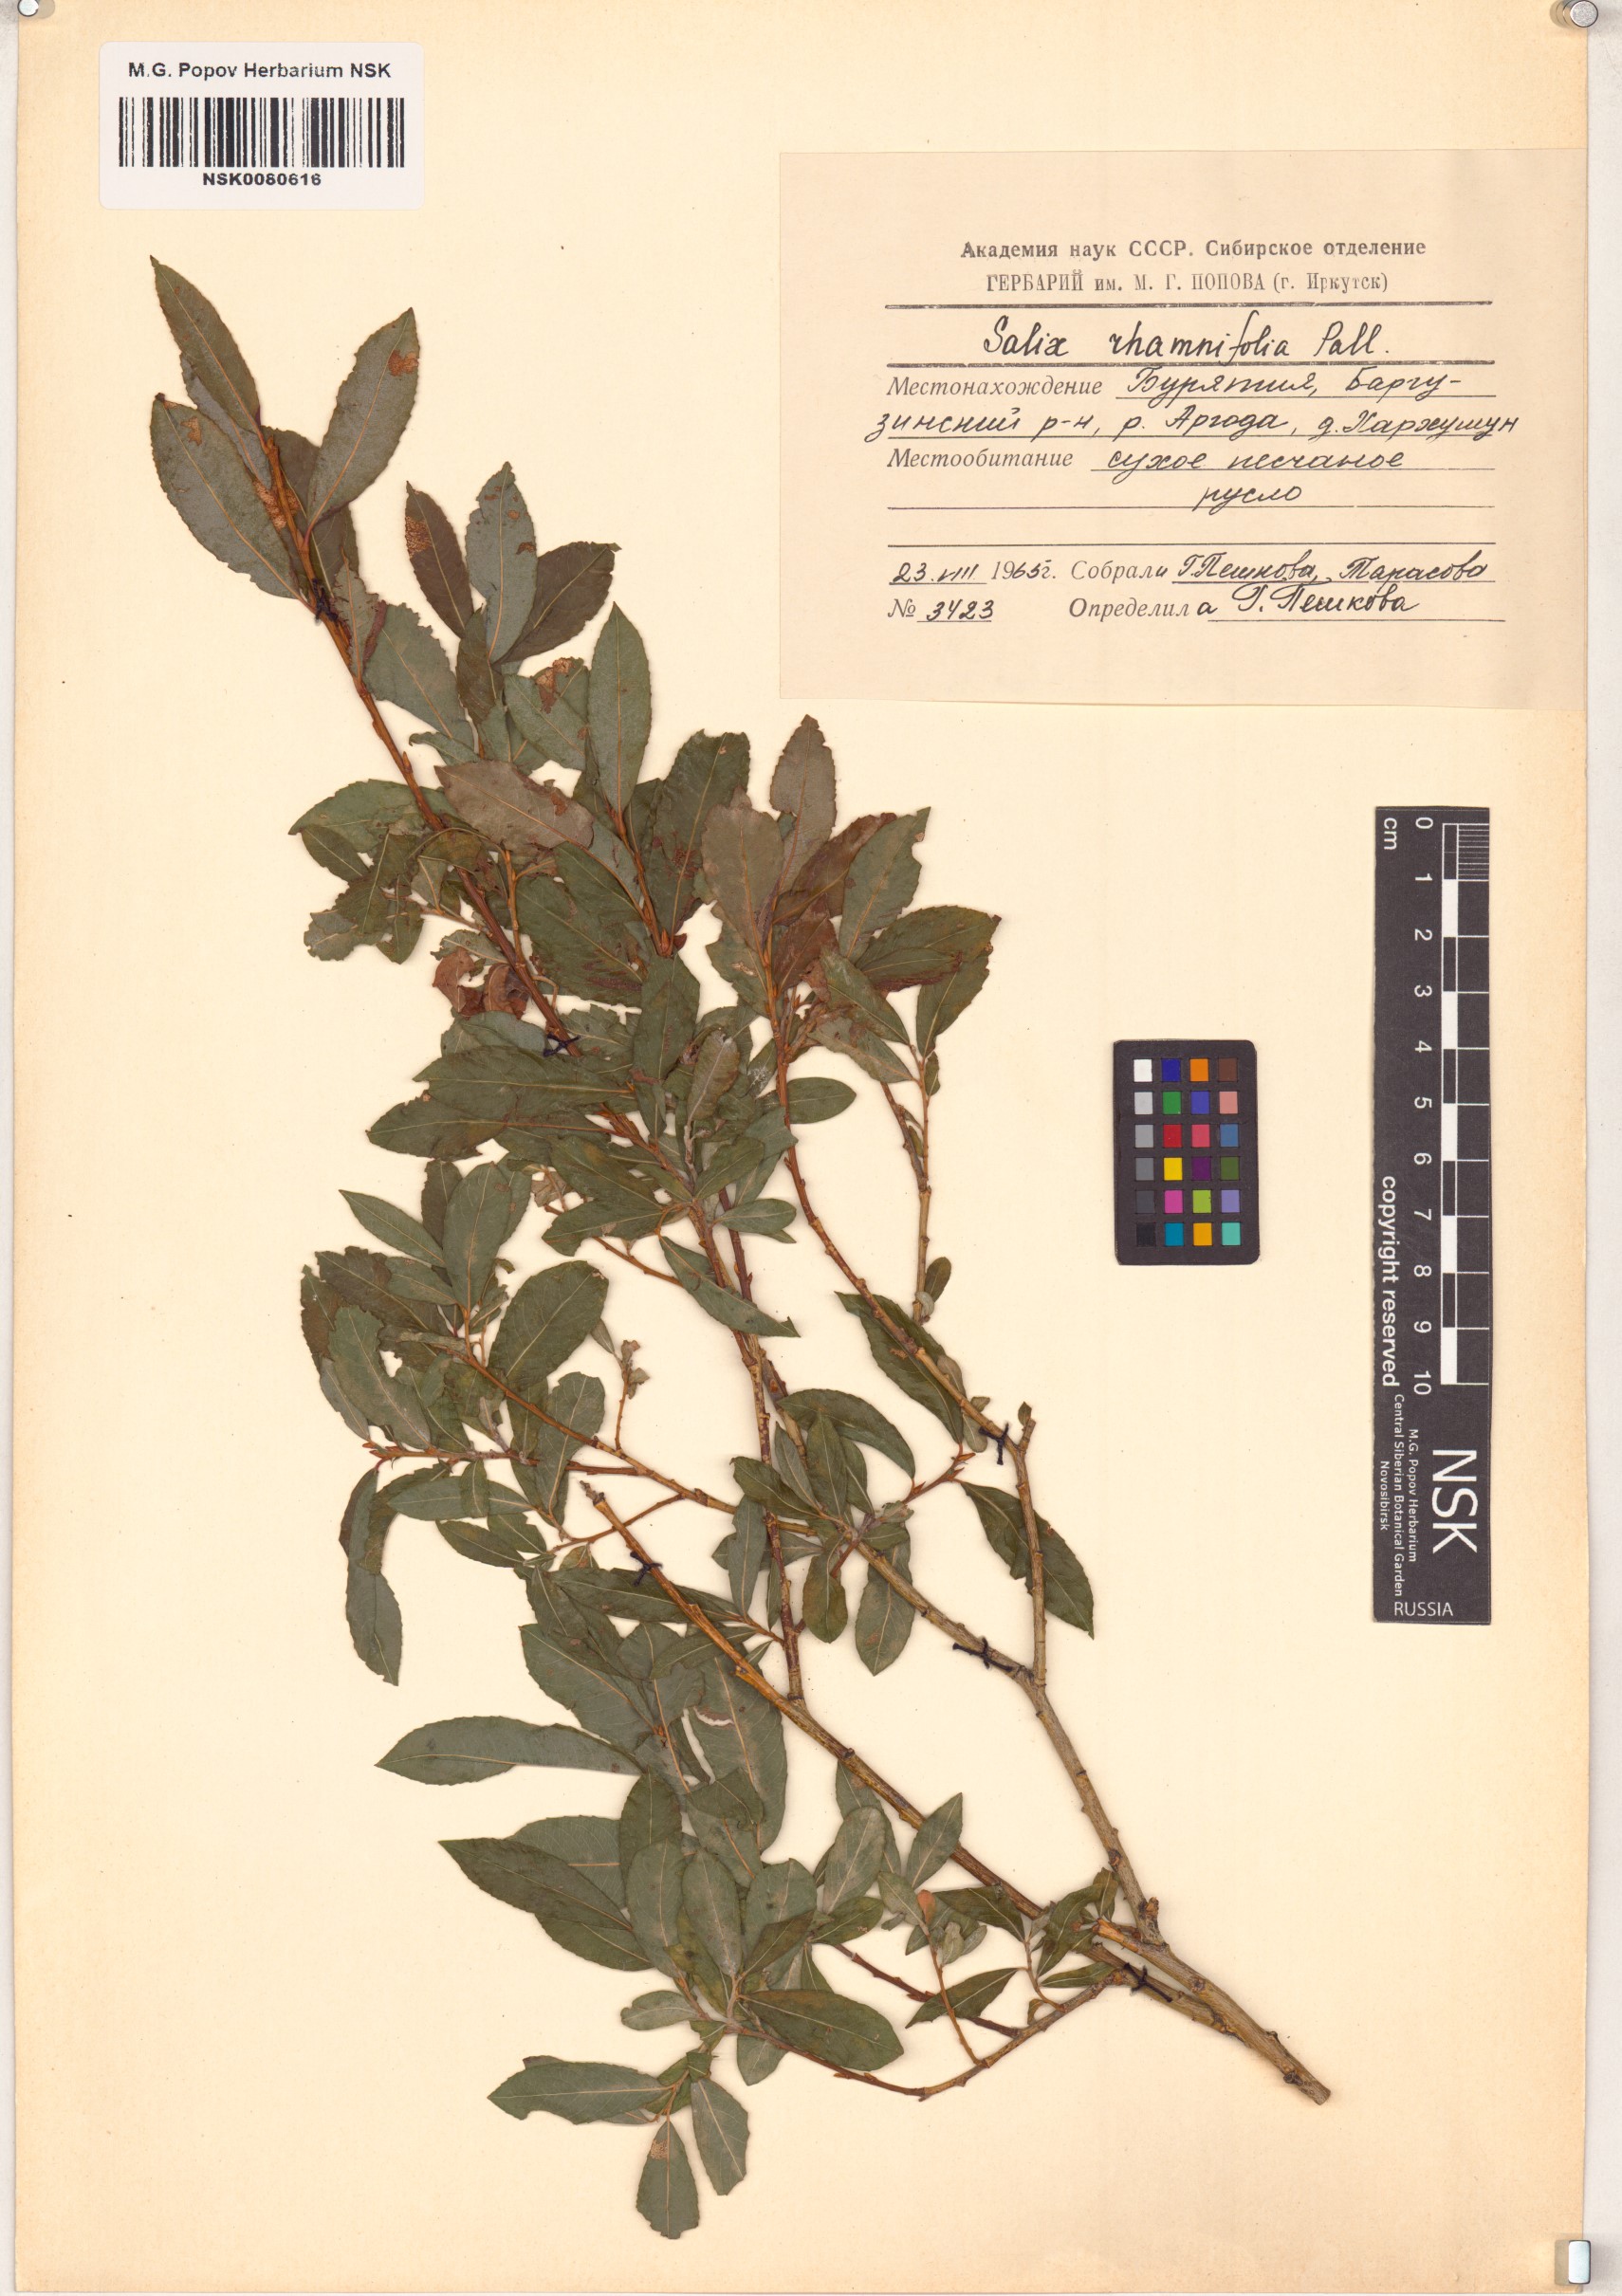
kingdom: Plantae
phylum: Tracheophyta
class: Magnoliopsida
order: Malpighiales
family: Salicaceae
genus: Salix
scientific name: Salix rhamnifolia
